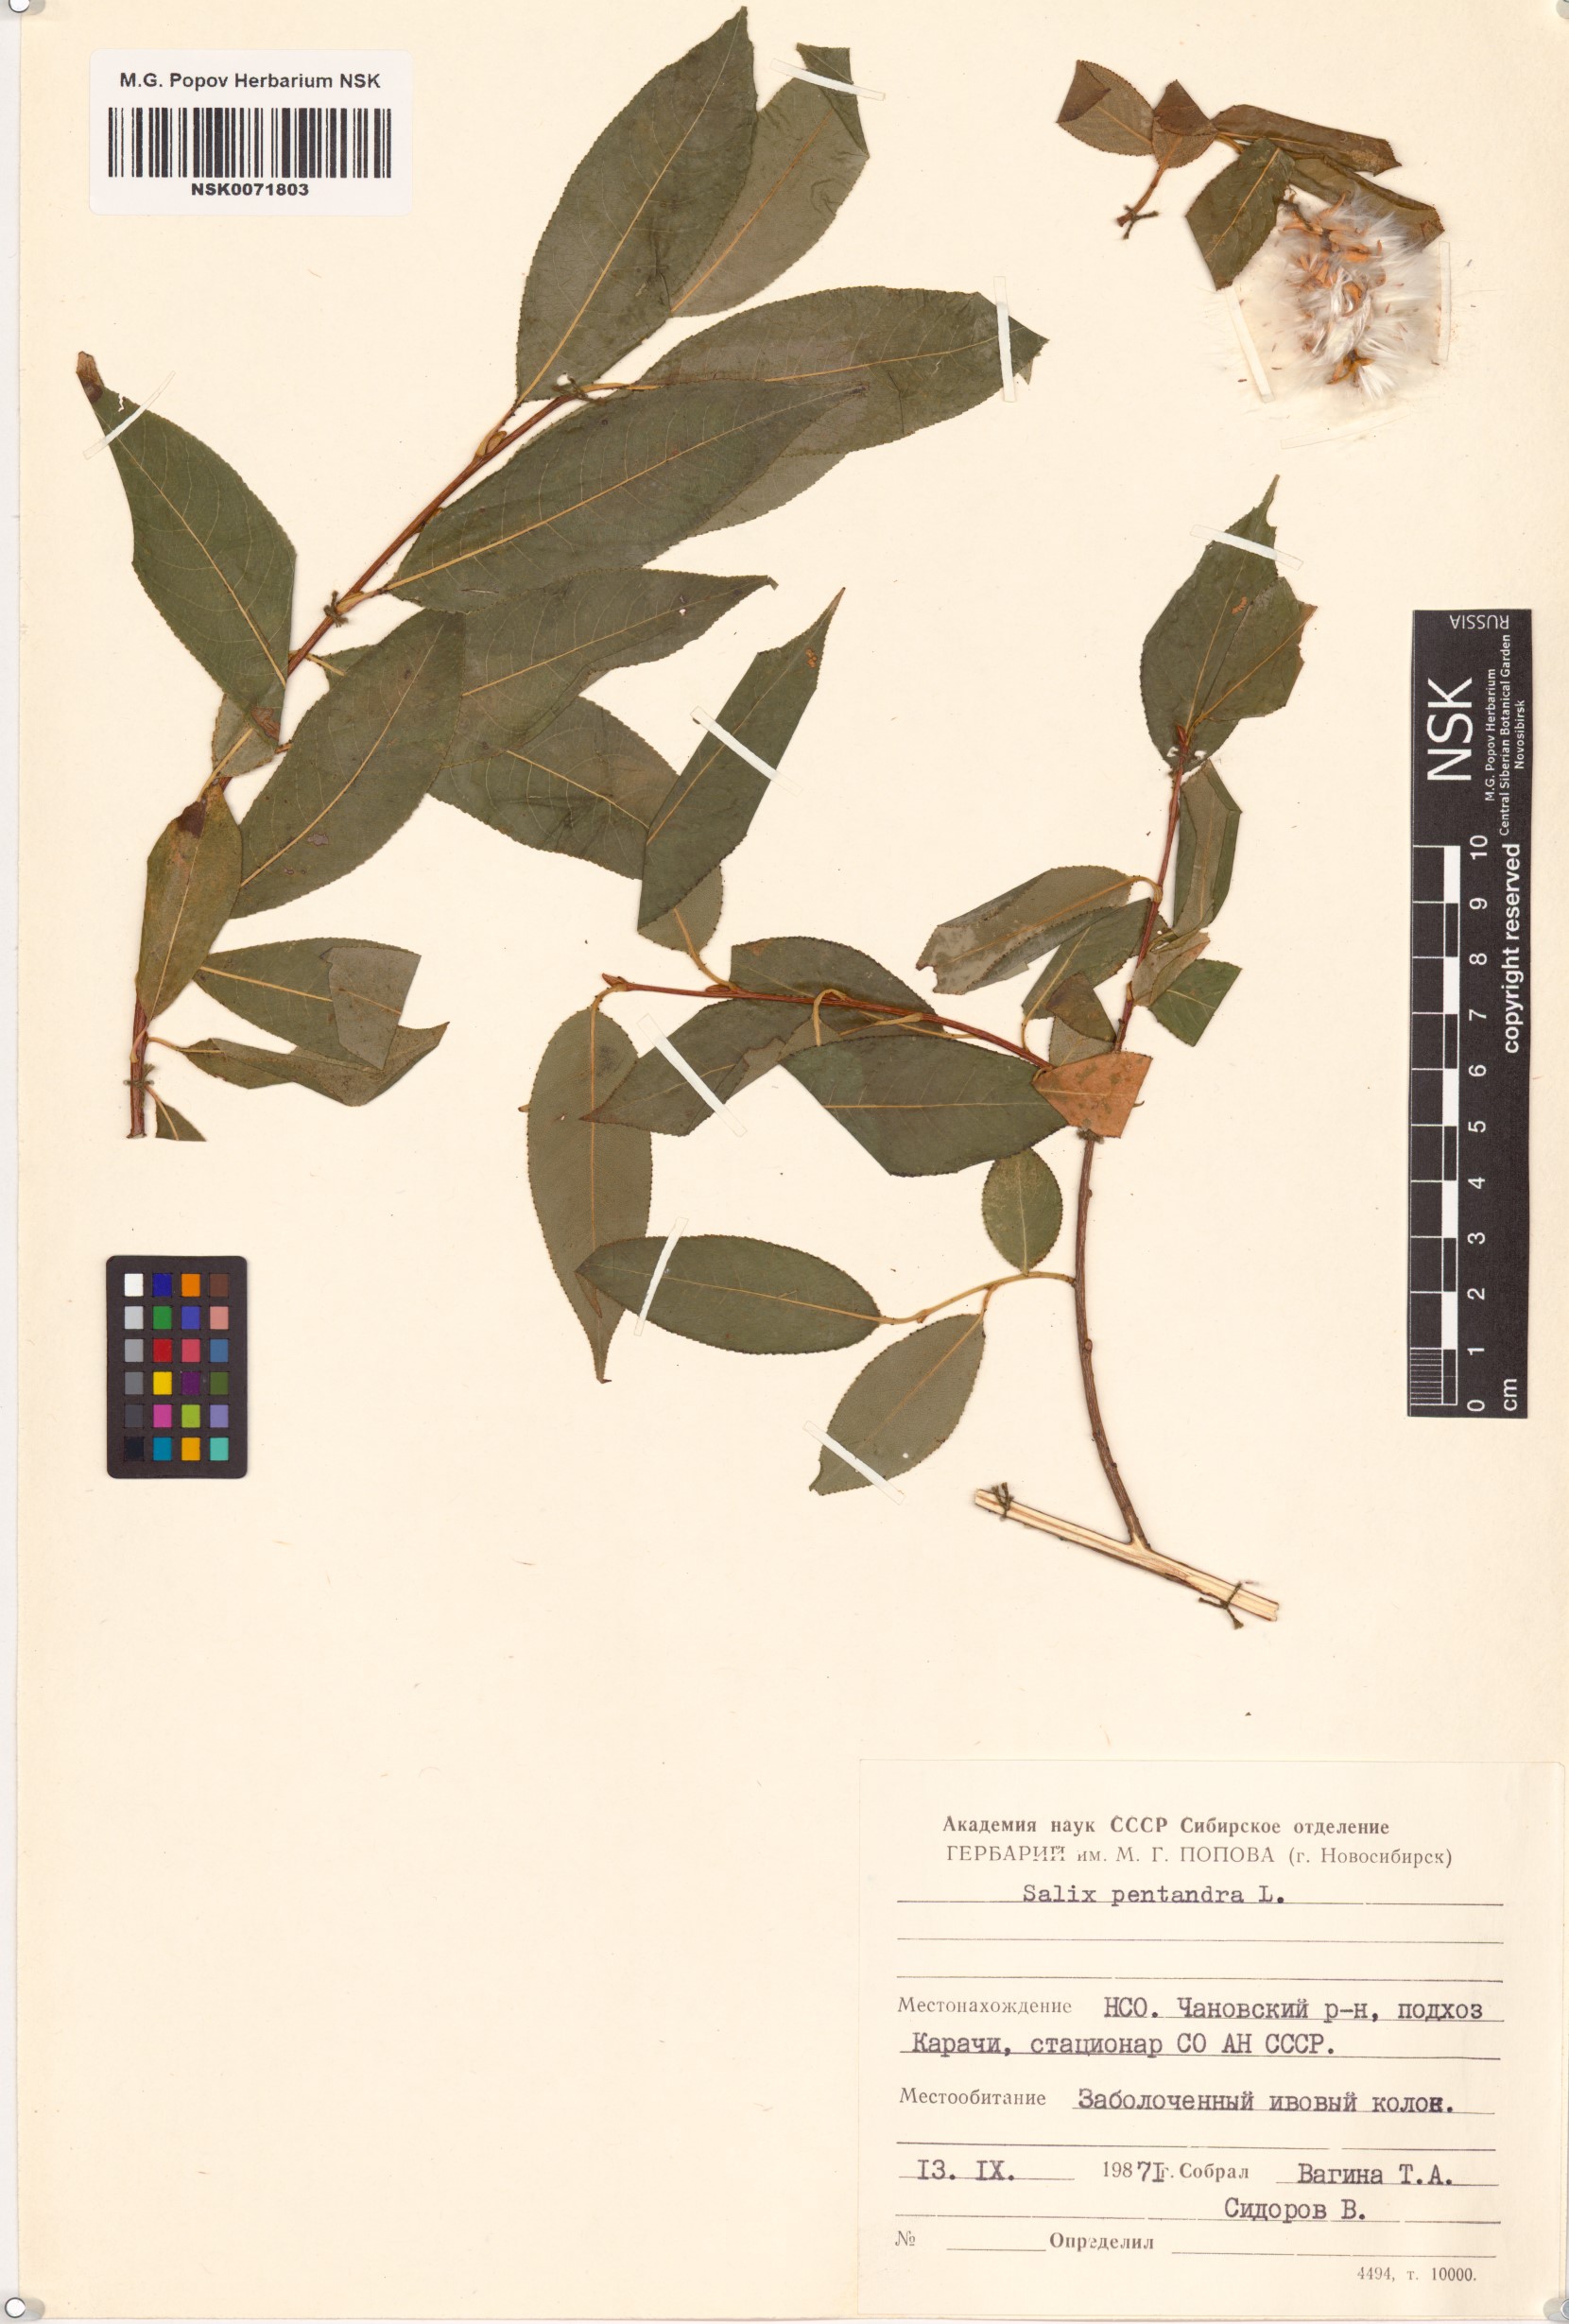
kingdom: Plantae
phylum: Tracheophyta
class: Magnoliopsida
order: Malpighiales
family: Salicaceae
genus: Salix
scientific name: Salix pentandra
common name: Bay willow
